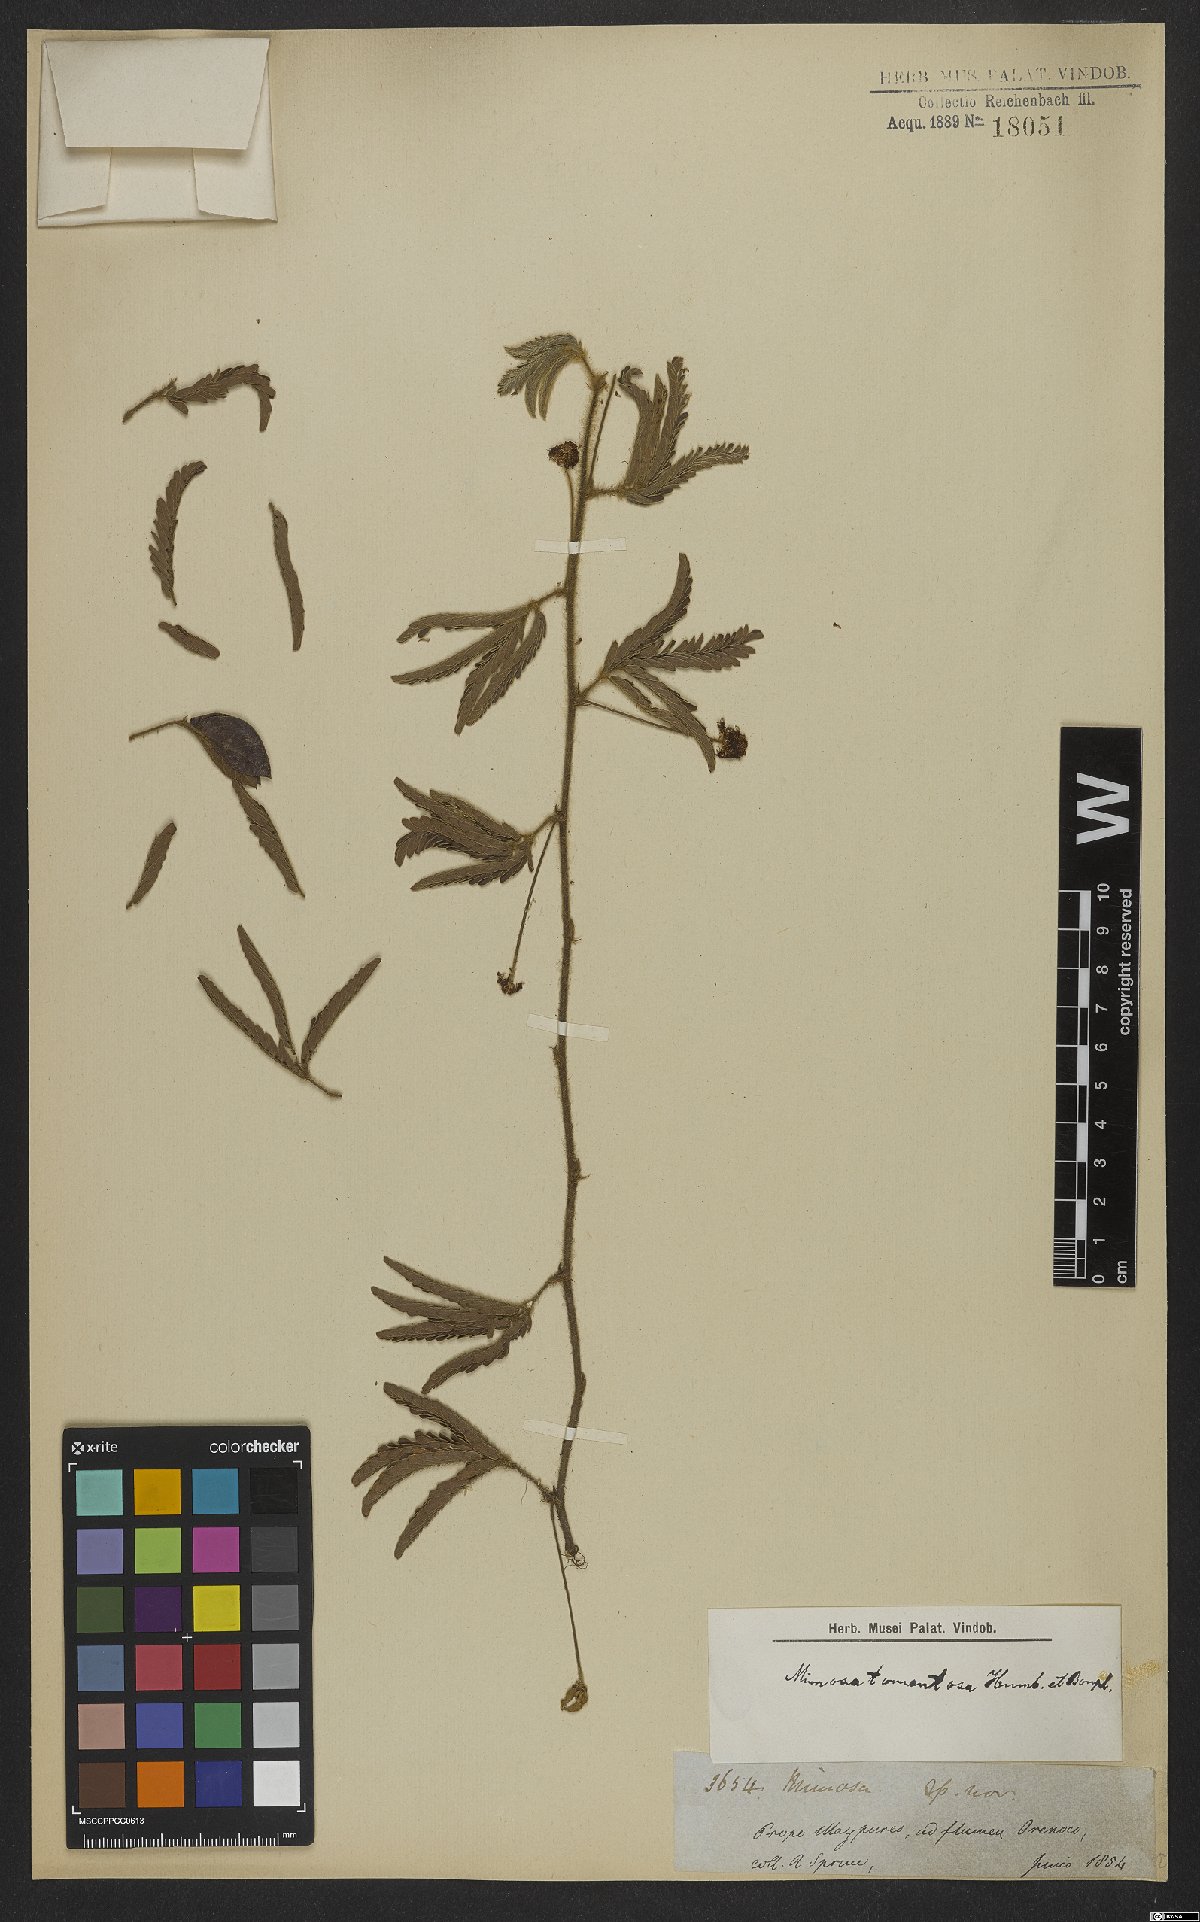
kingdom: Plantae
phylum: Tracheophyta
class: Magnoliopsida
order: Fabales
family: Fabaceae
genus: Mimosa
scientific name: Mimosa hirsutissima
